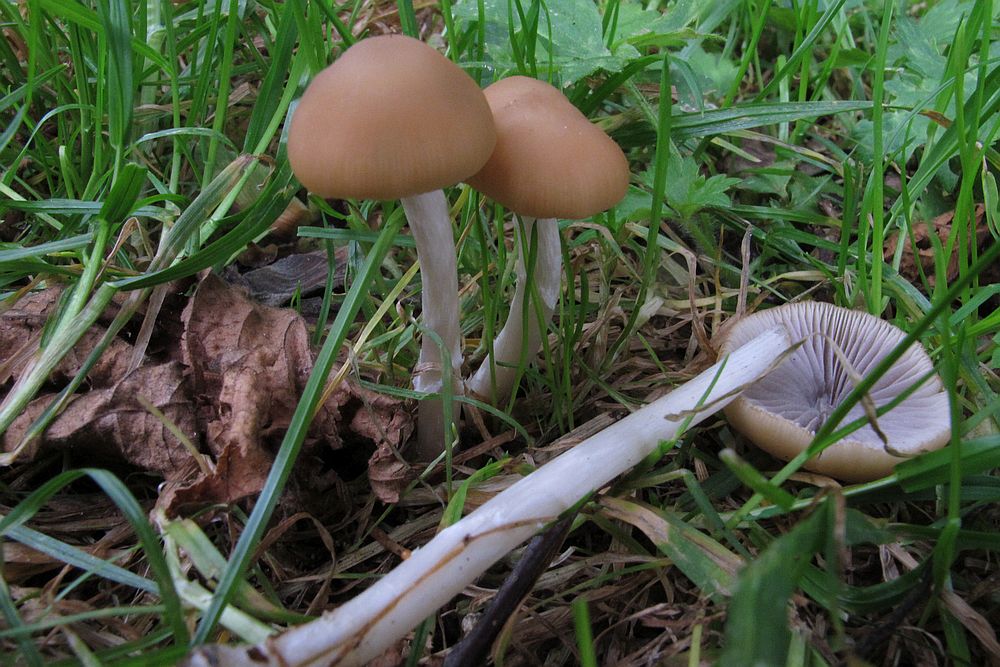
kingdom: Fungi
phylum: Basidiomycota
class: Agaricomycetes
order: Agaricales
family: Psathyrellaceae
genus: Psathyrella
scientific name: Psathyrella pseudogracilis
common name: slank mørkhat
